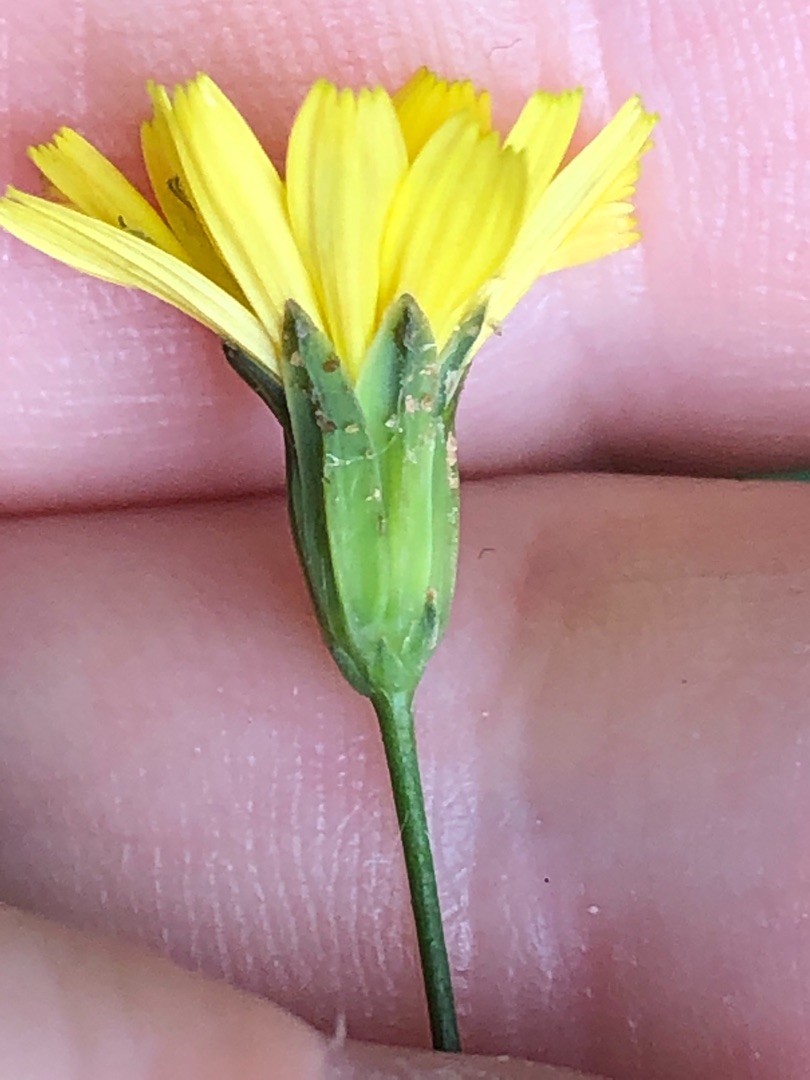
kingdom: Plantae
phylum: Tracheophyta
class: Magnoliopsida
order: Asterales
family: Asteraceae
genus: Lapsana
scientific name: Lapsana communis
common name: Haremad
